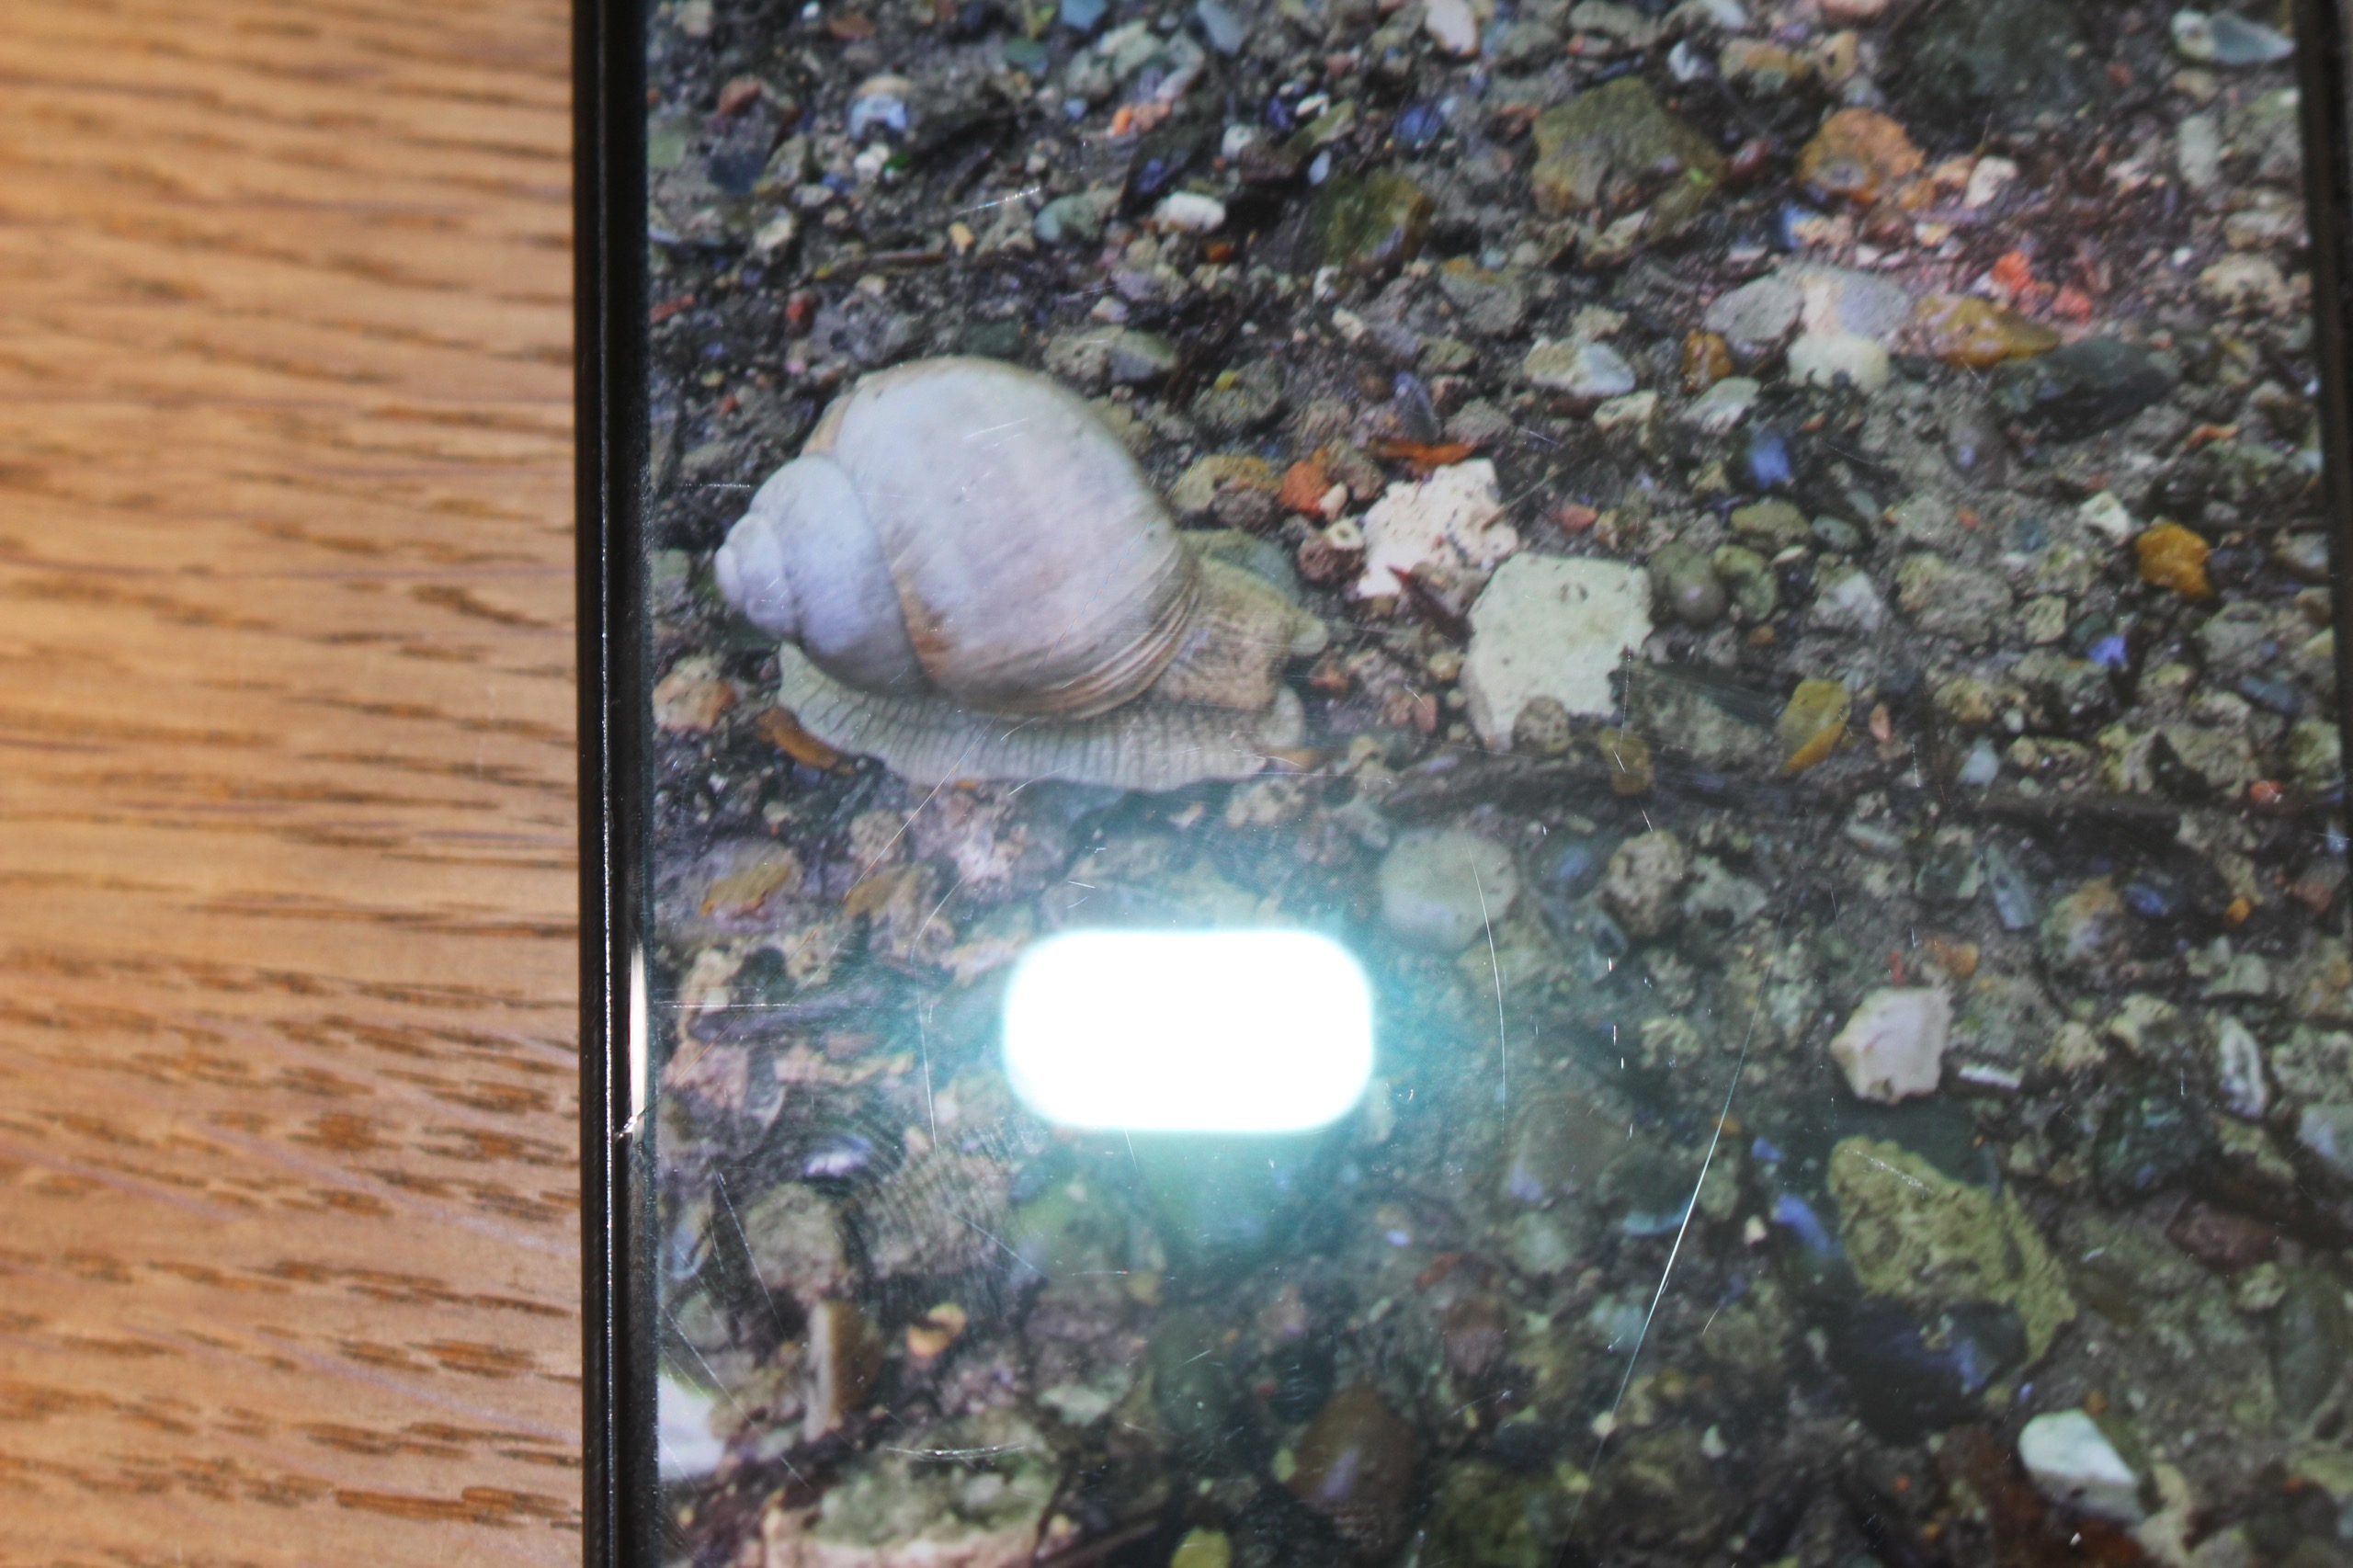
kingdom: Animalia
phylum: Mollusca
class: Gastropoda
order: Stylommatophora
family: Helicidae
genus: Helix
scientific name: Helix pomatia
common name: Vinbjergsnegl
